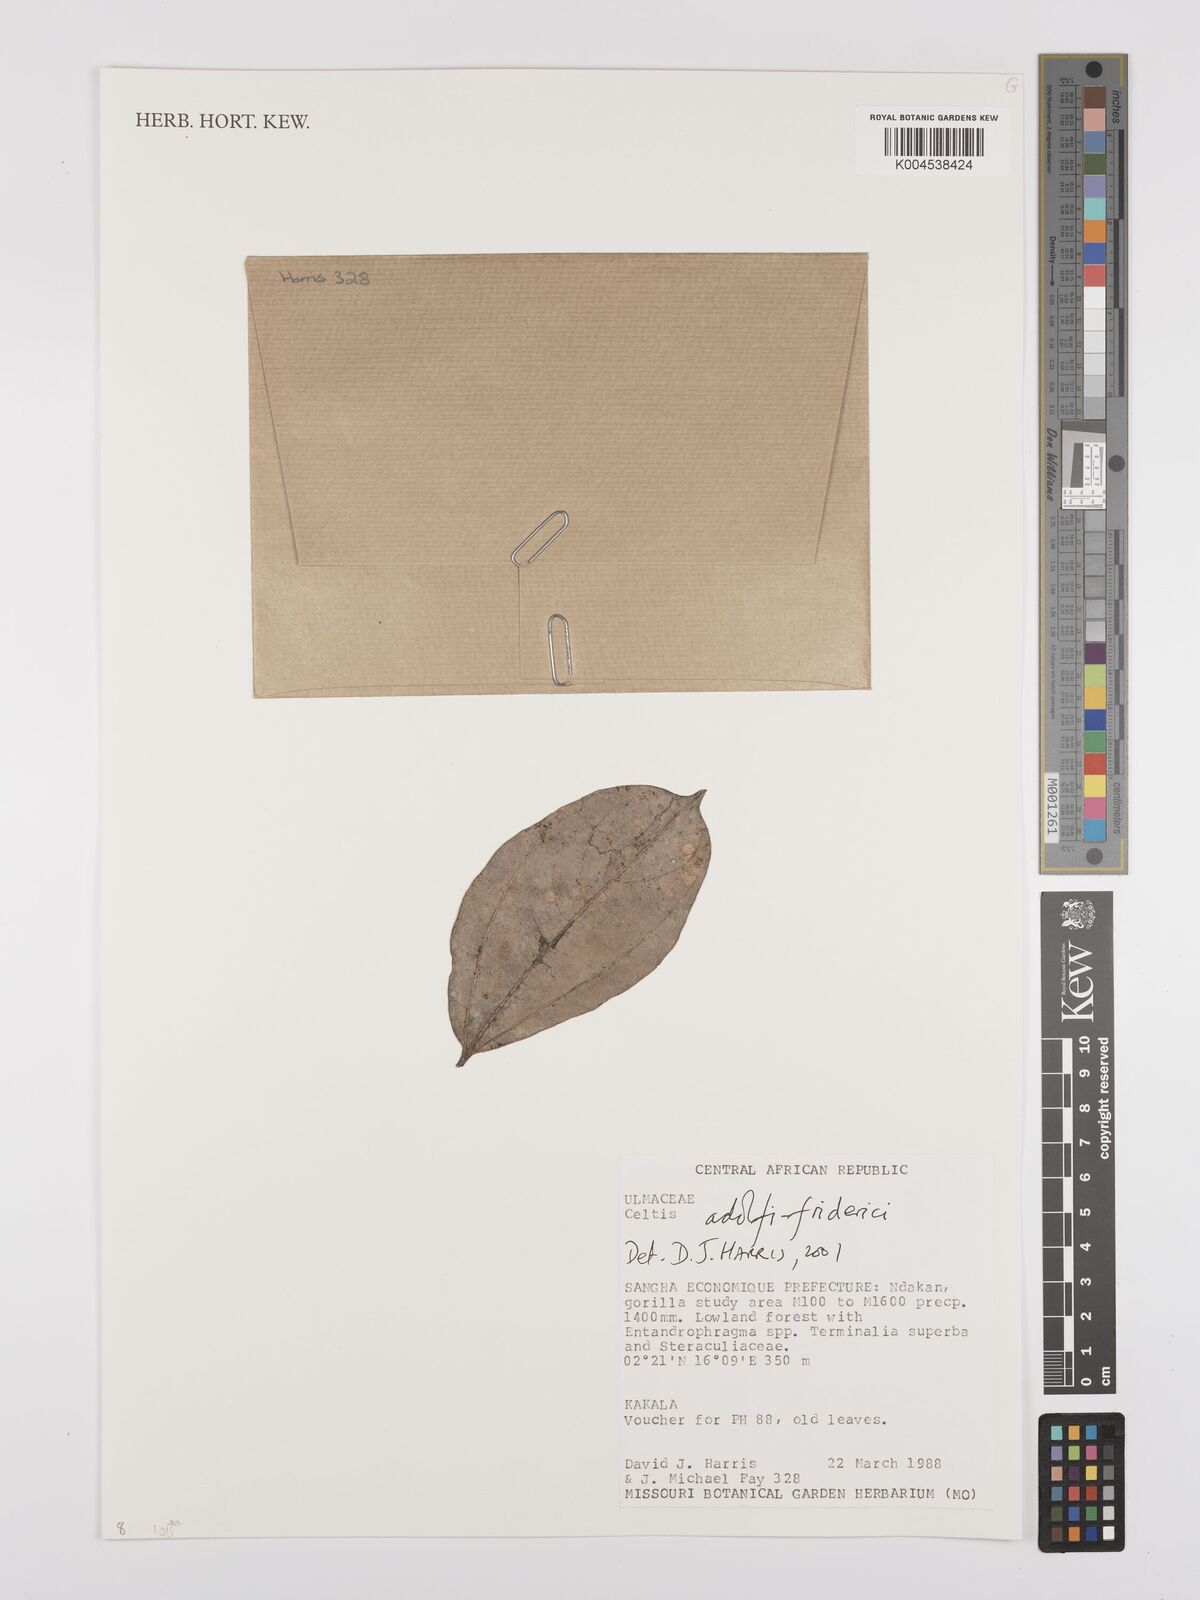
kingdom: Plantae
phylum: Tracheophyta
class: Magnoliopsida
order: Rosales
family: Cannabaceae
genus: Celtis
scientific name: Celtis adolfi-friderici
